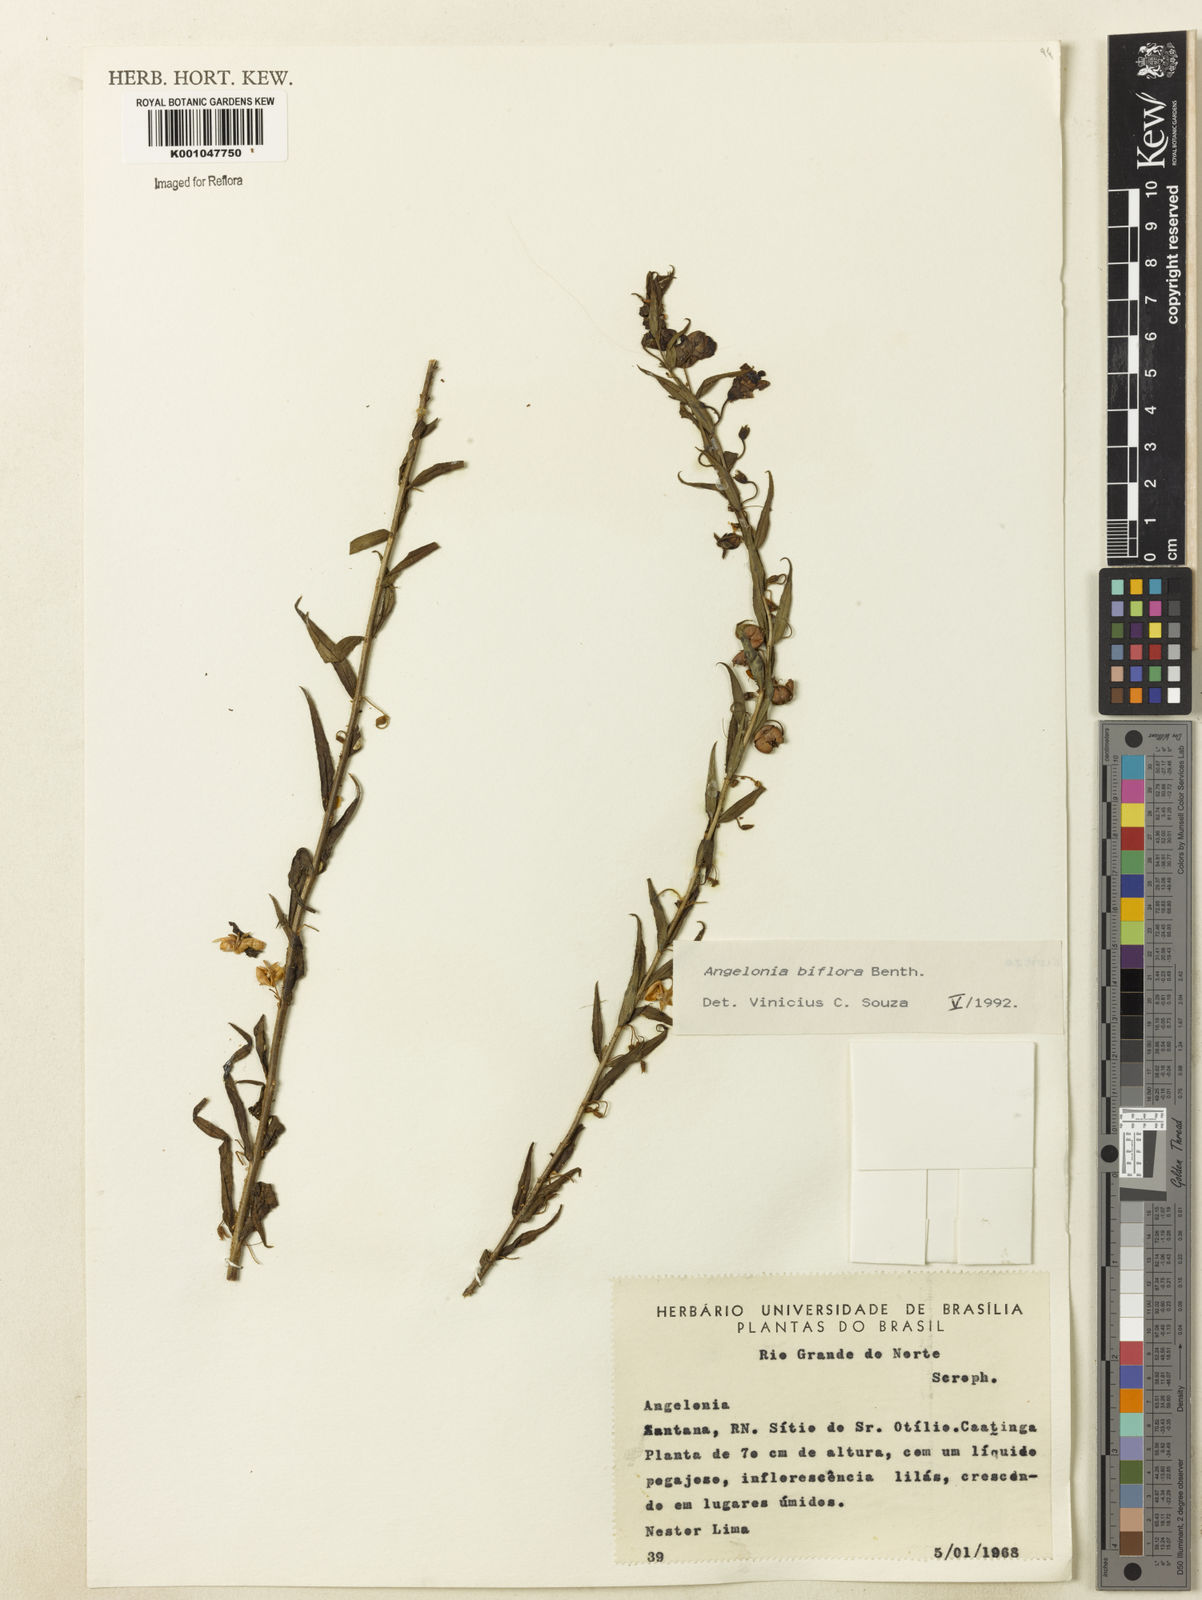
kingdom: Plantae
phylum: Tracheophyta
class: Magnoliopsida
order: Lamiales
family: Plantaginaceae
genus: Angelonia
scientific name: Angelonia biflora
